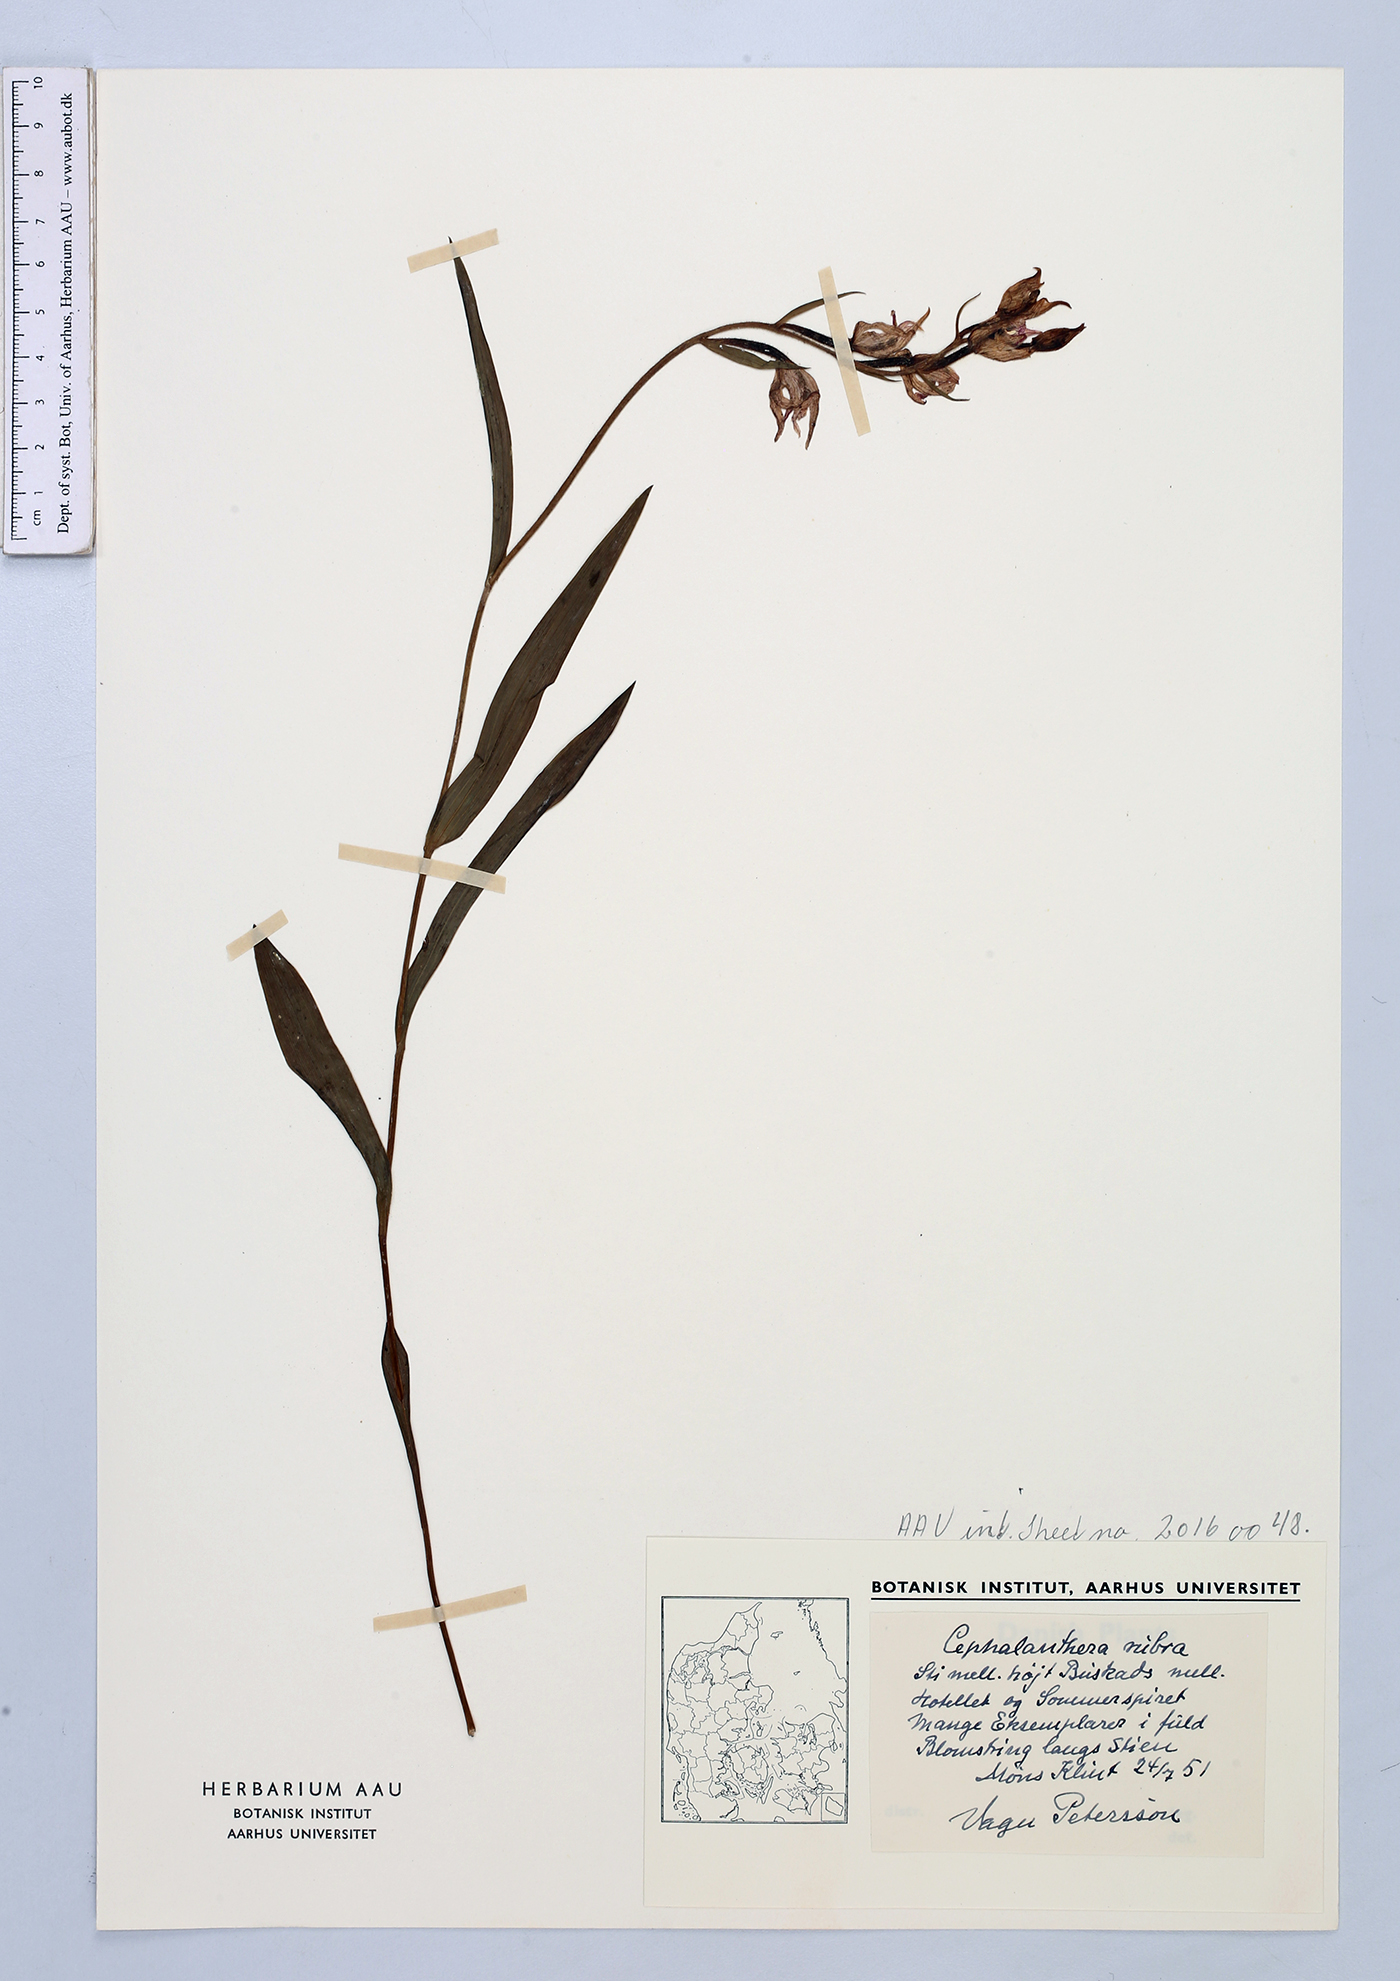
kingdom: Plantae
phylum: Tracheophyta
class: Liliopsida
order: Asparagales
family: Orchidaceae
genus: Cephalanthera
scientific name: Cephalanthera rubra
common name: Red helleborine
